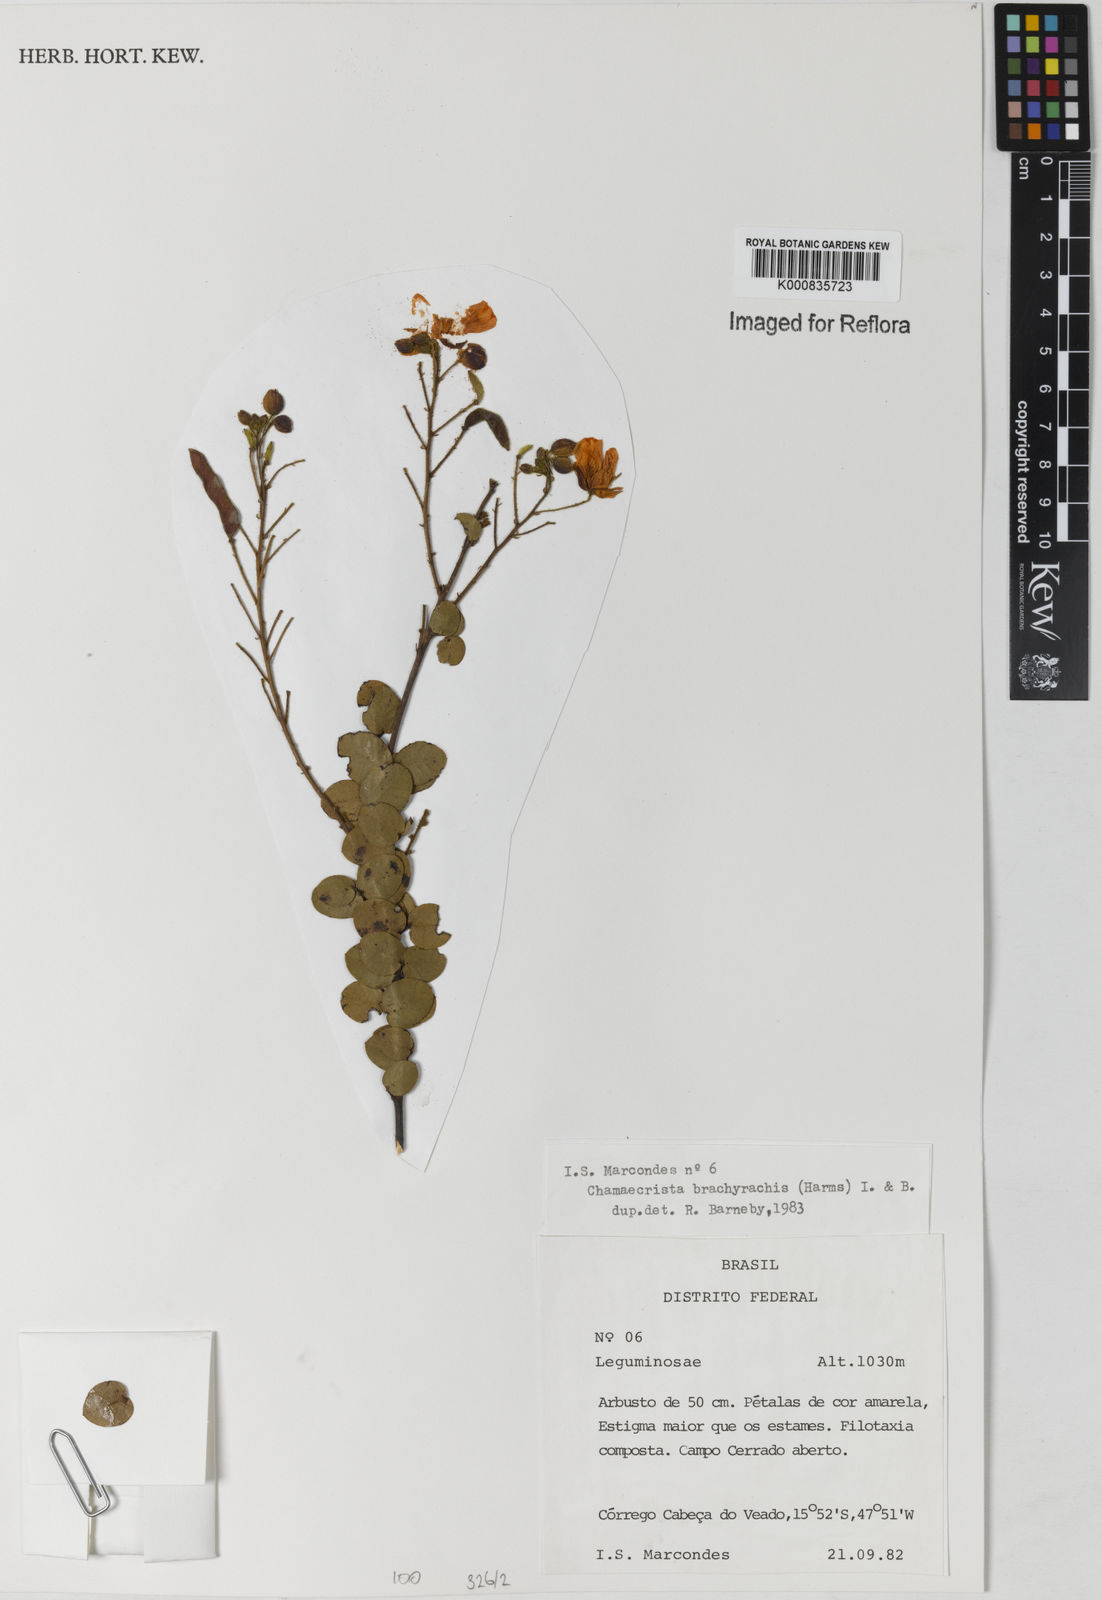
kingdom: Plantae
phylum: Tracheophyta
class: Magnoliopsida
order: Fabales
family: Fabaceae
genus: Chamaecrista
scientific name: Chamaecrista brachyrachis
